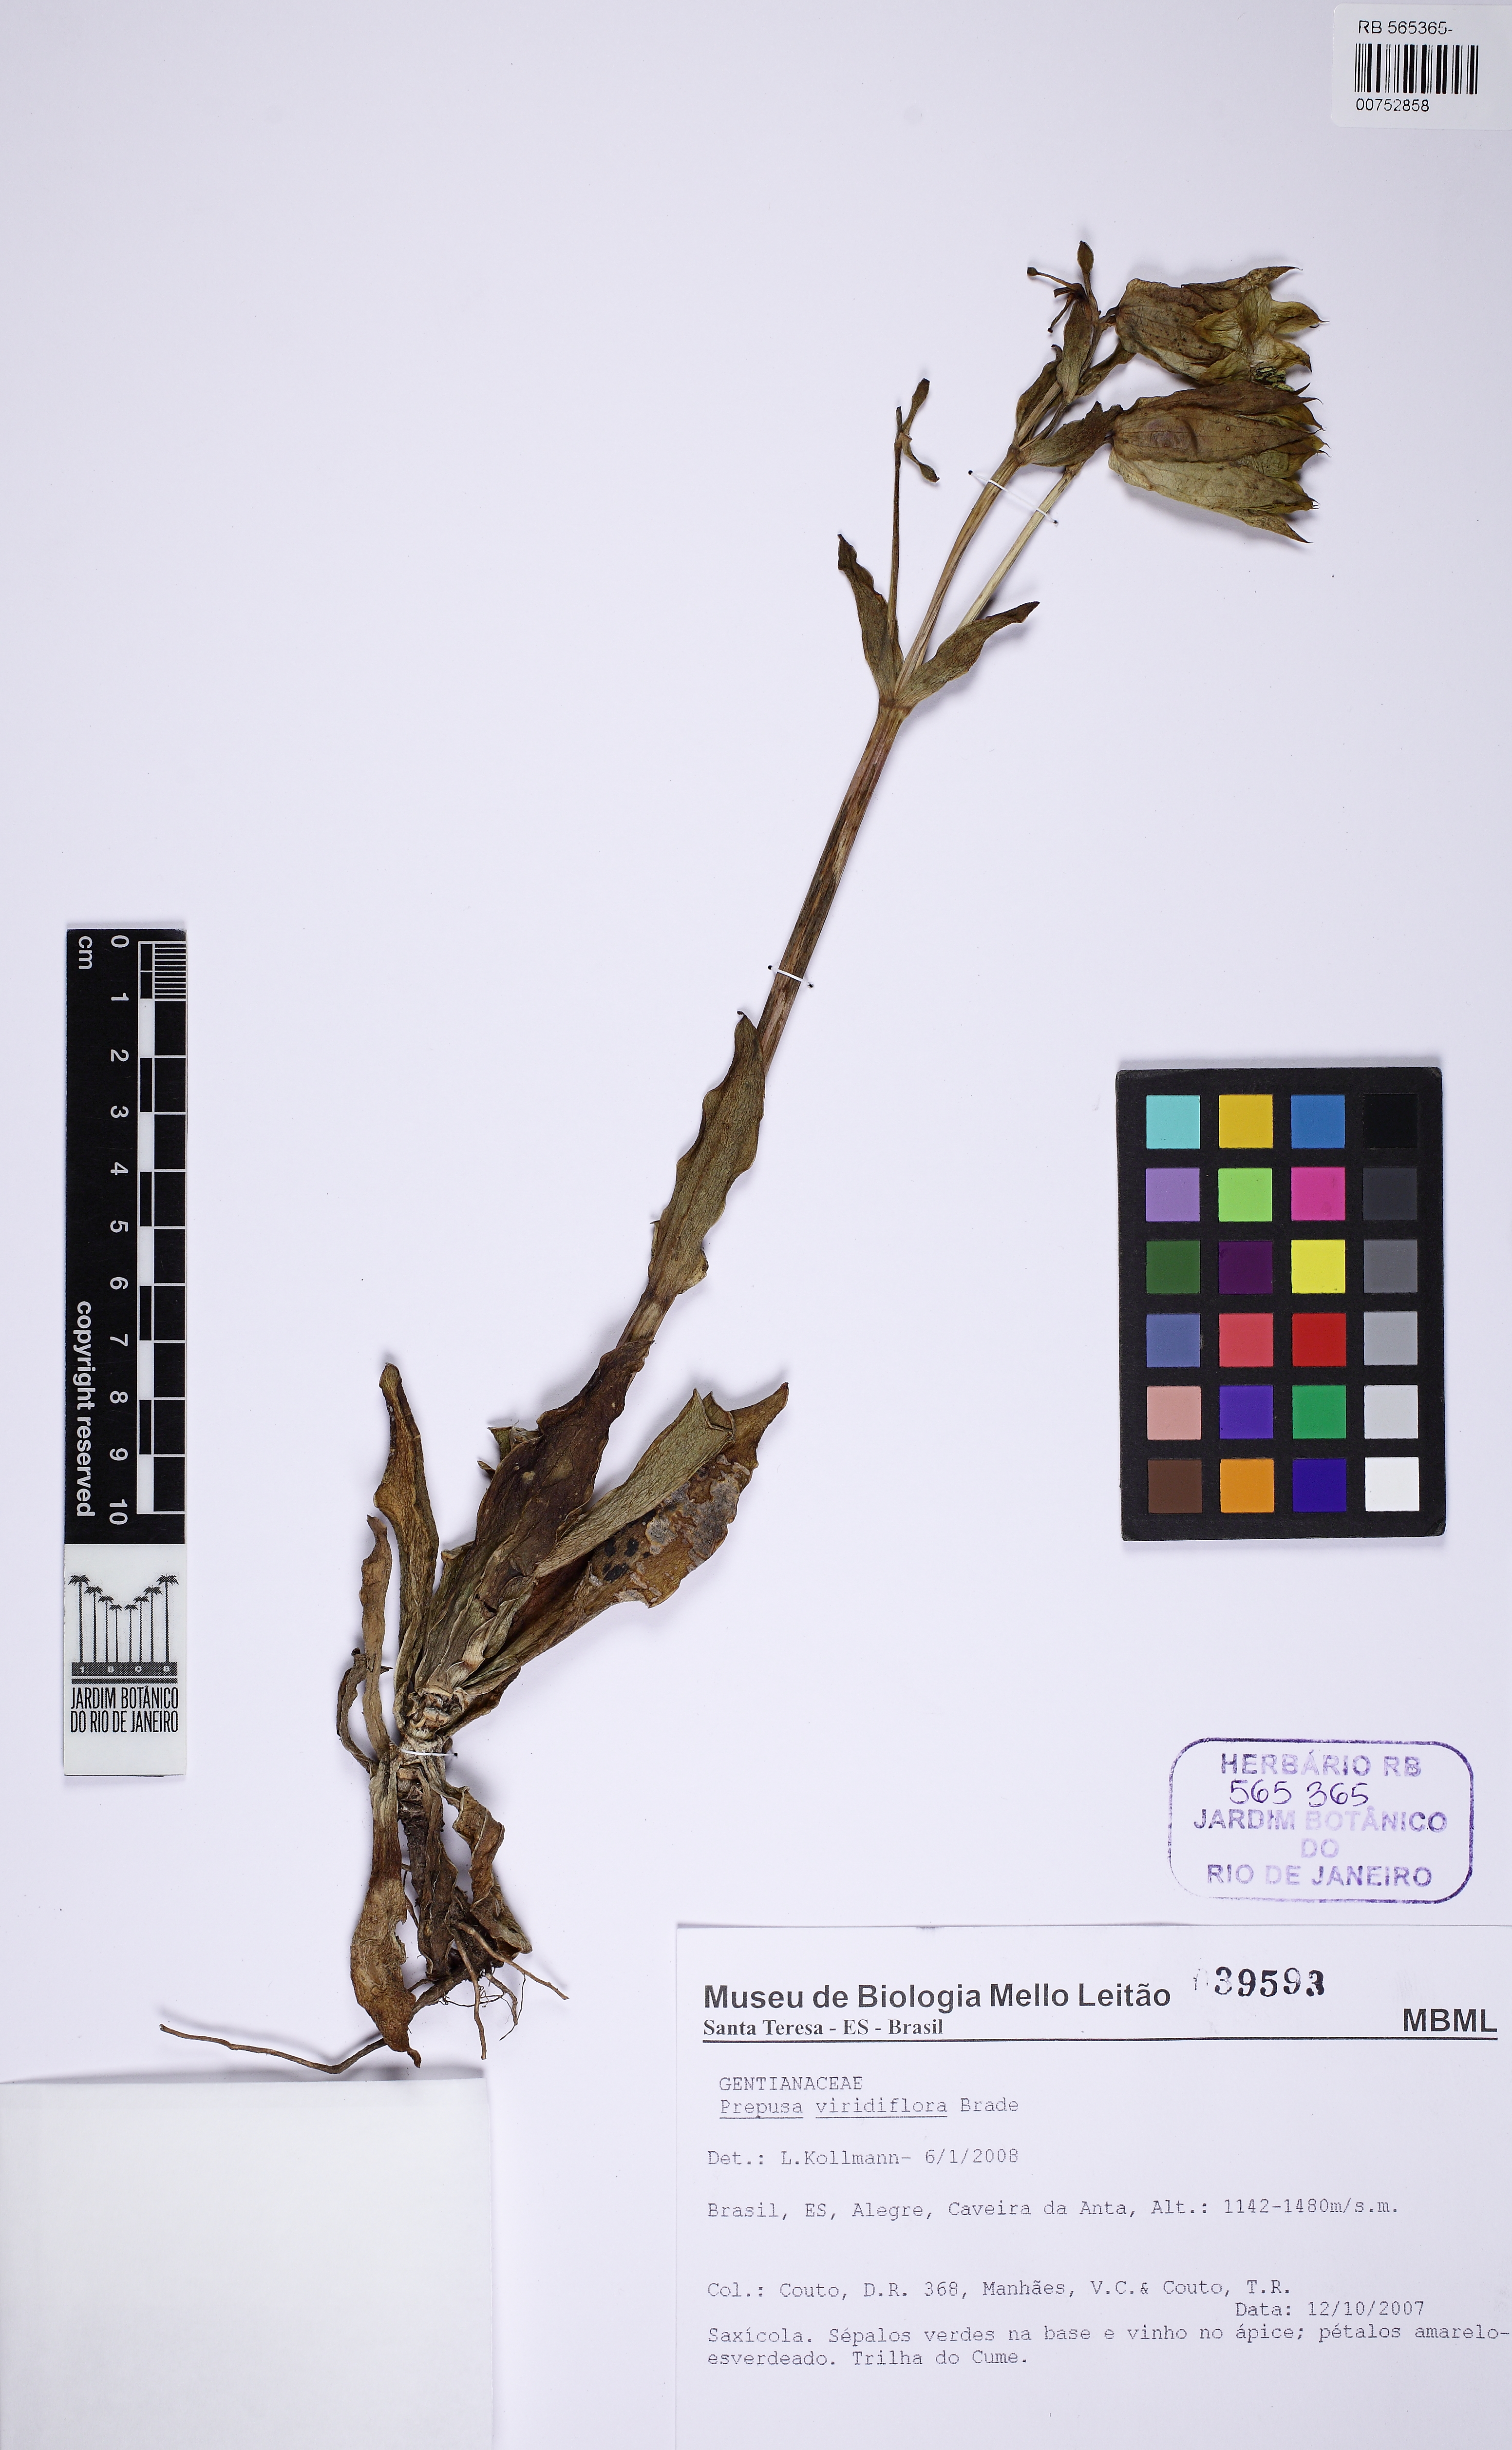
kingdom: Plantae
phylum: Tracheophyta
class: Magnoliopsida
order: Gentianales
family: Gentianaceae
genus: Prepusa
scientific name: Prepusa viridiflora
